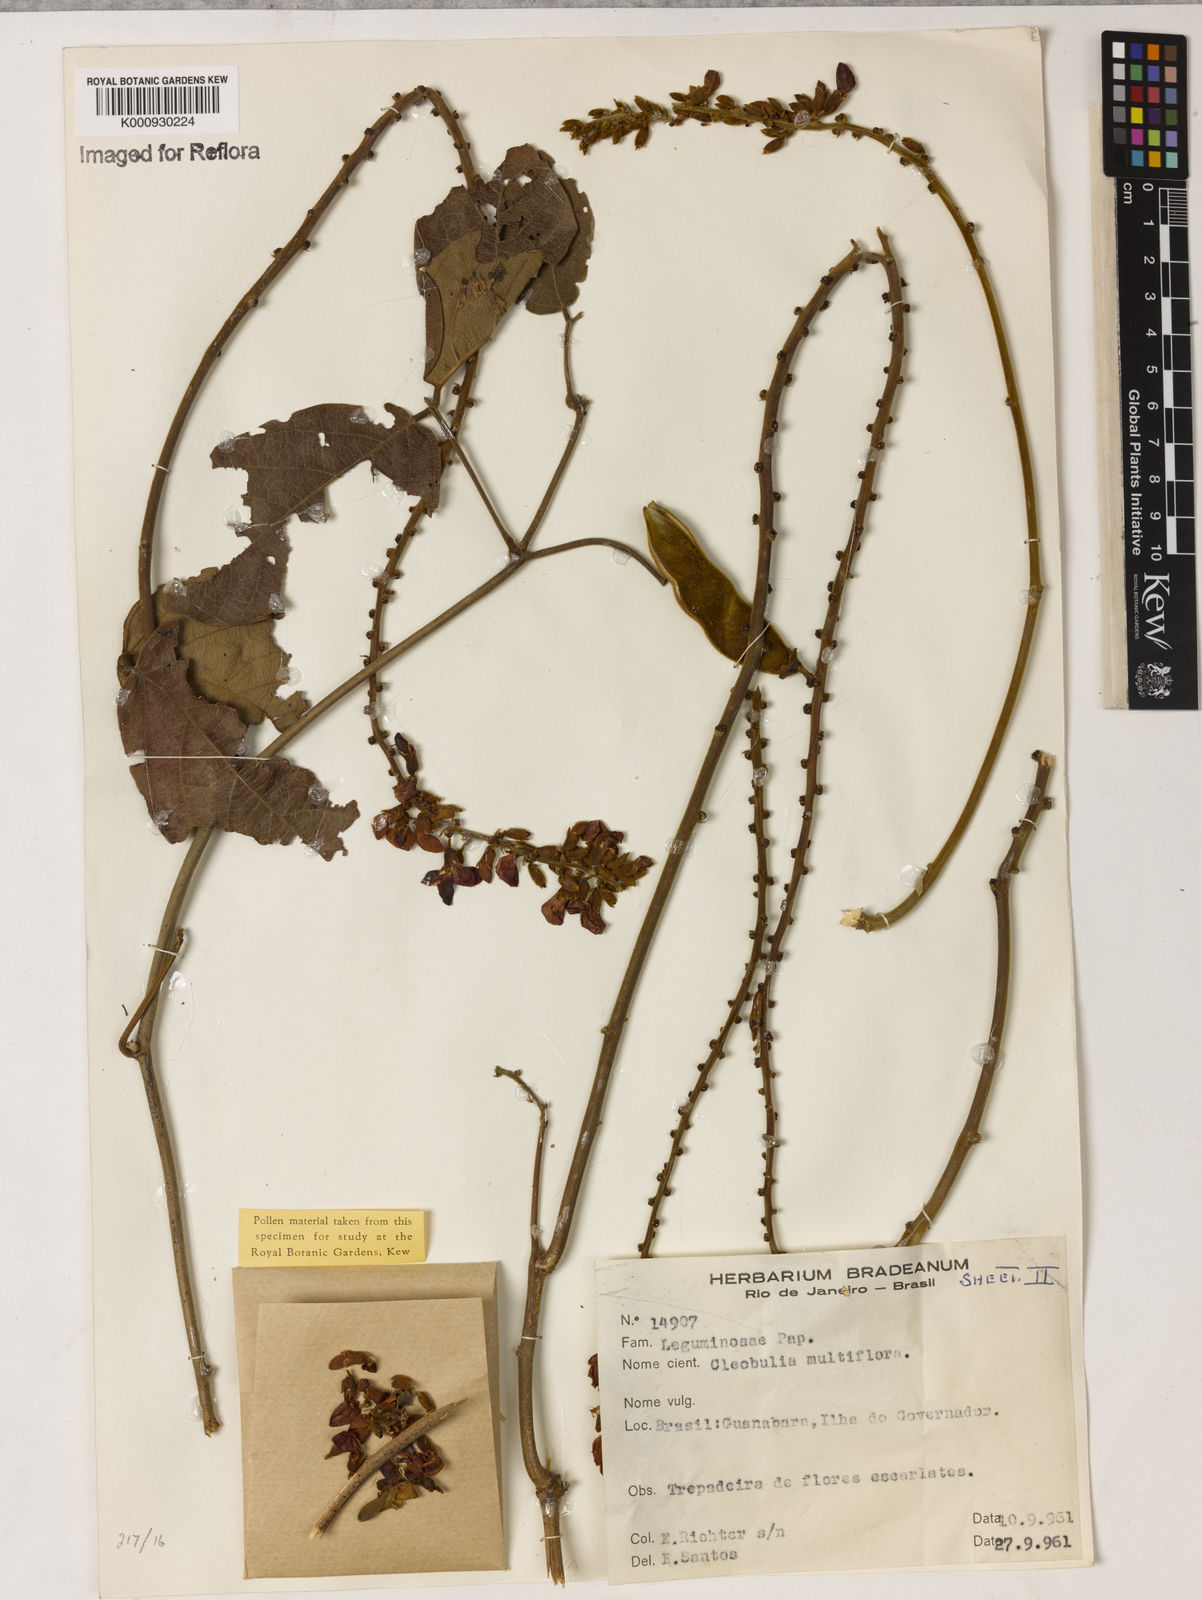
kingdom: Plantae
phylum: Tracheophyta
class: Magnoliopsida
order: Fabales
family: Fabaceae
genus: Cleobulia
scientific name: Cleobulia coccinea
